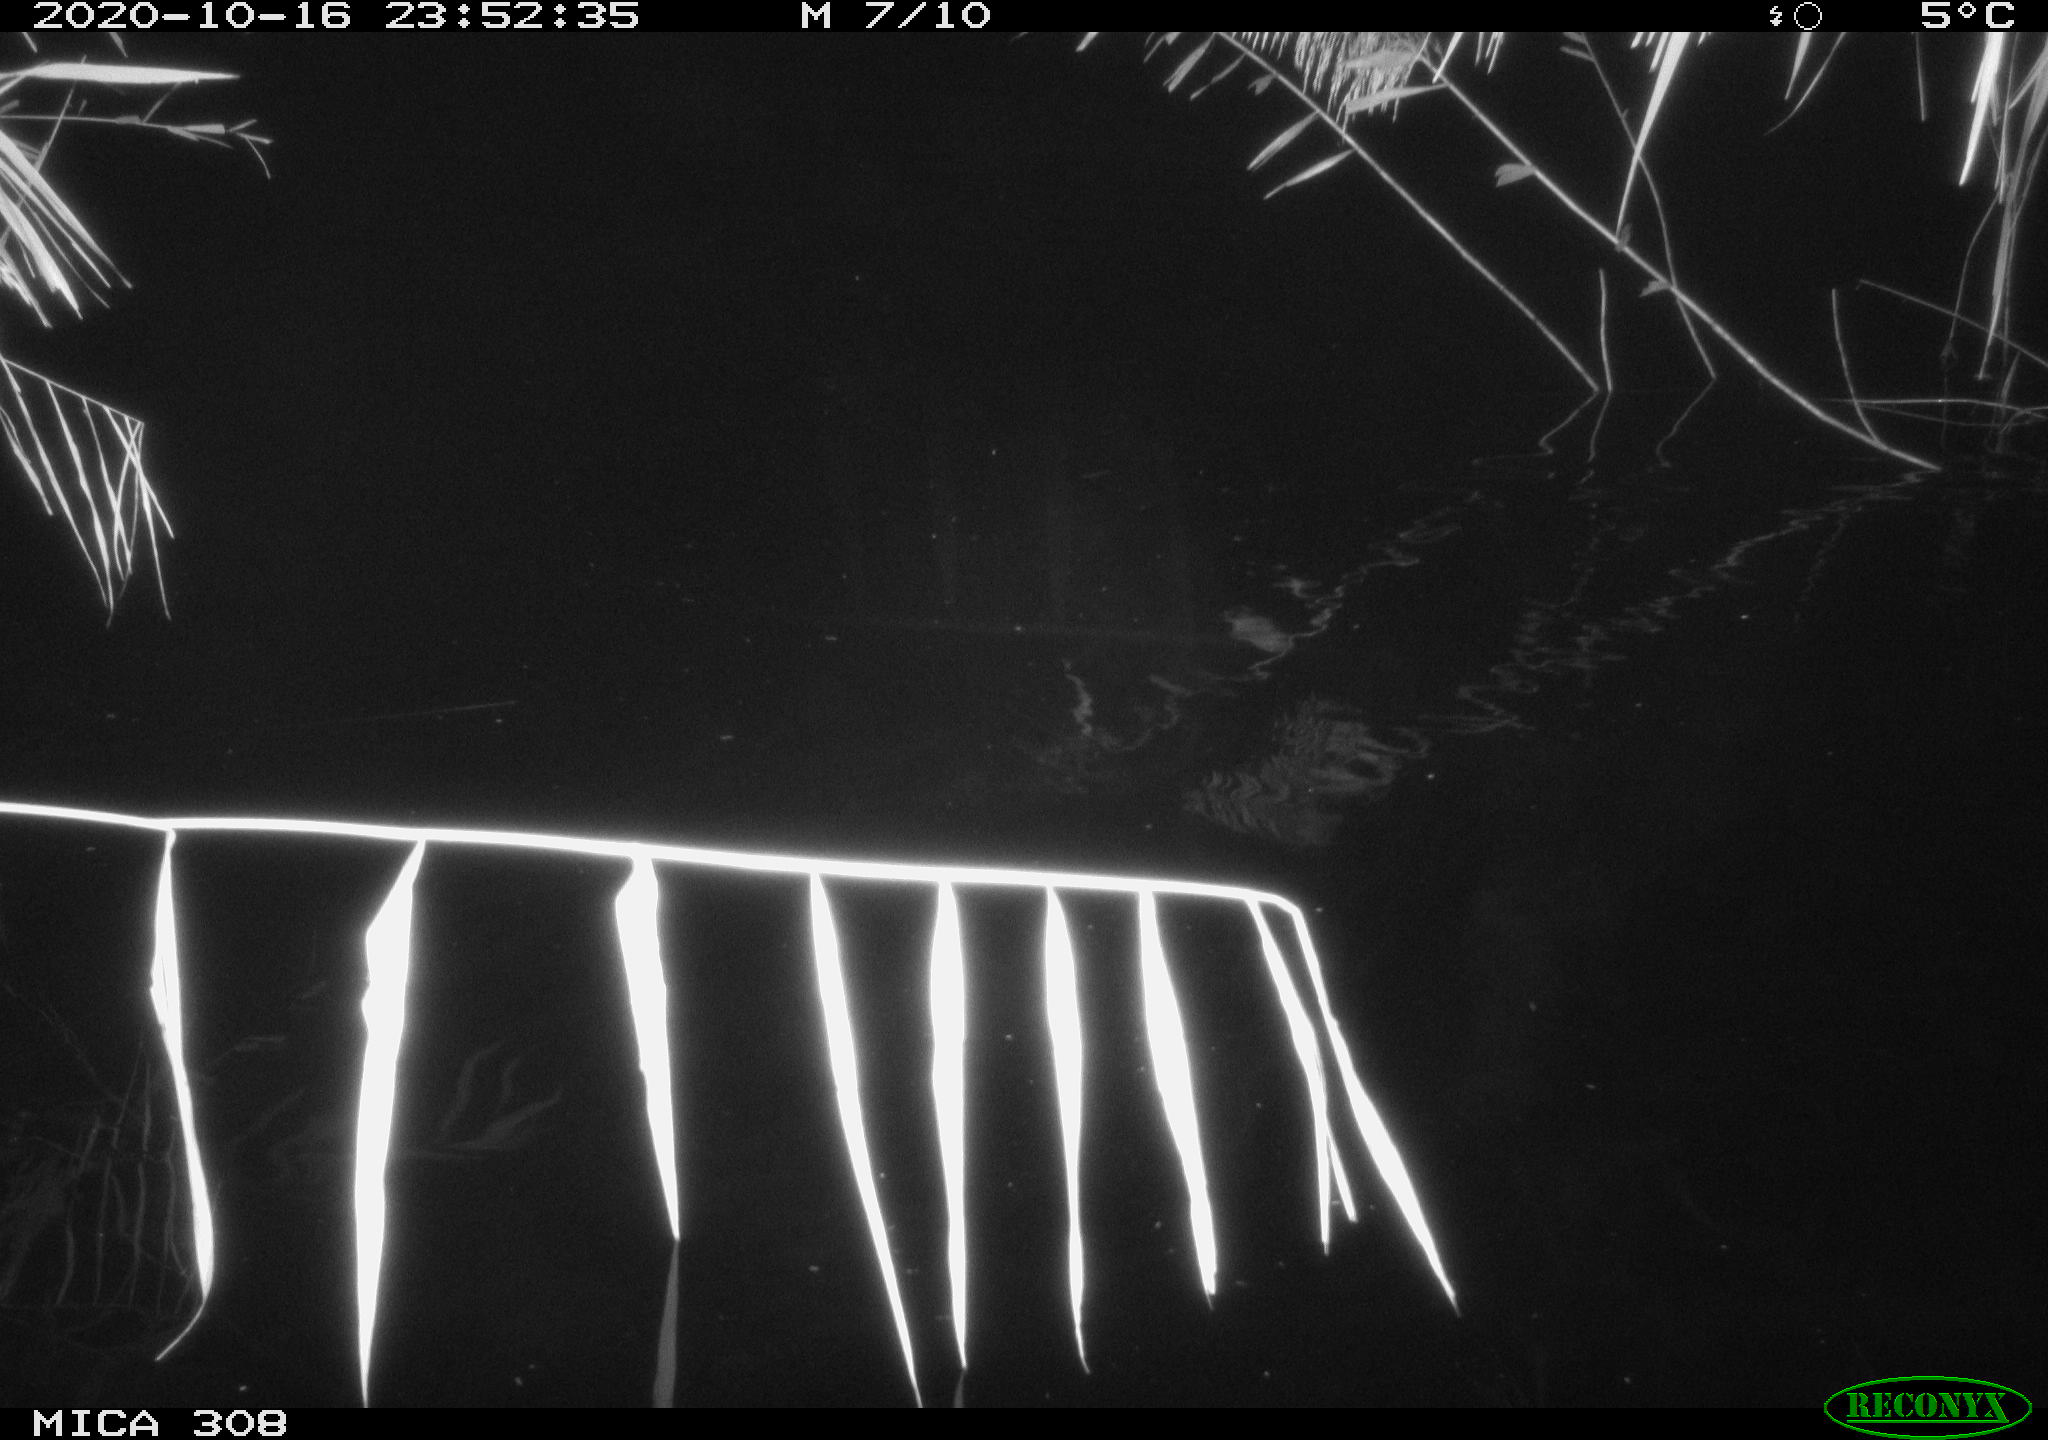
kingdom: Animalia
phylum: Chordata
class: Mammalia
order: Rodentia
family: Cricetidae
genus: Ondatra
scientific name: Ondatra zibethicus
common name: Muskrat
